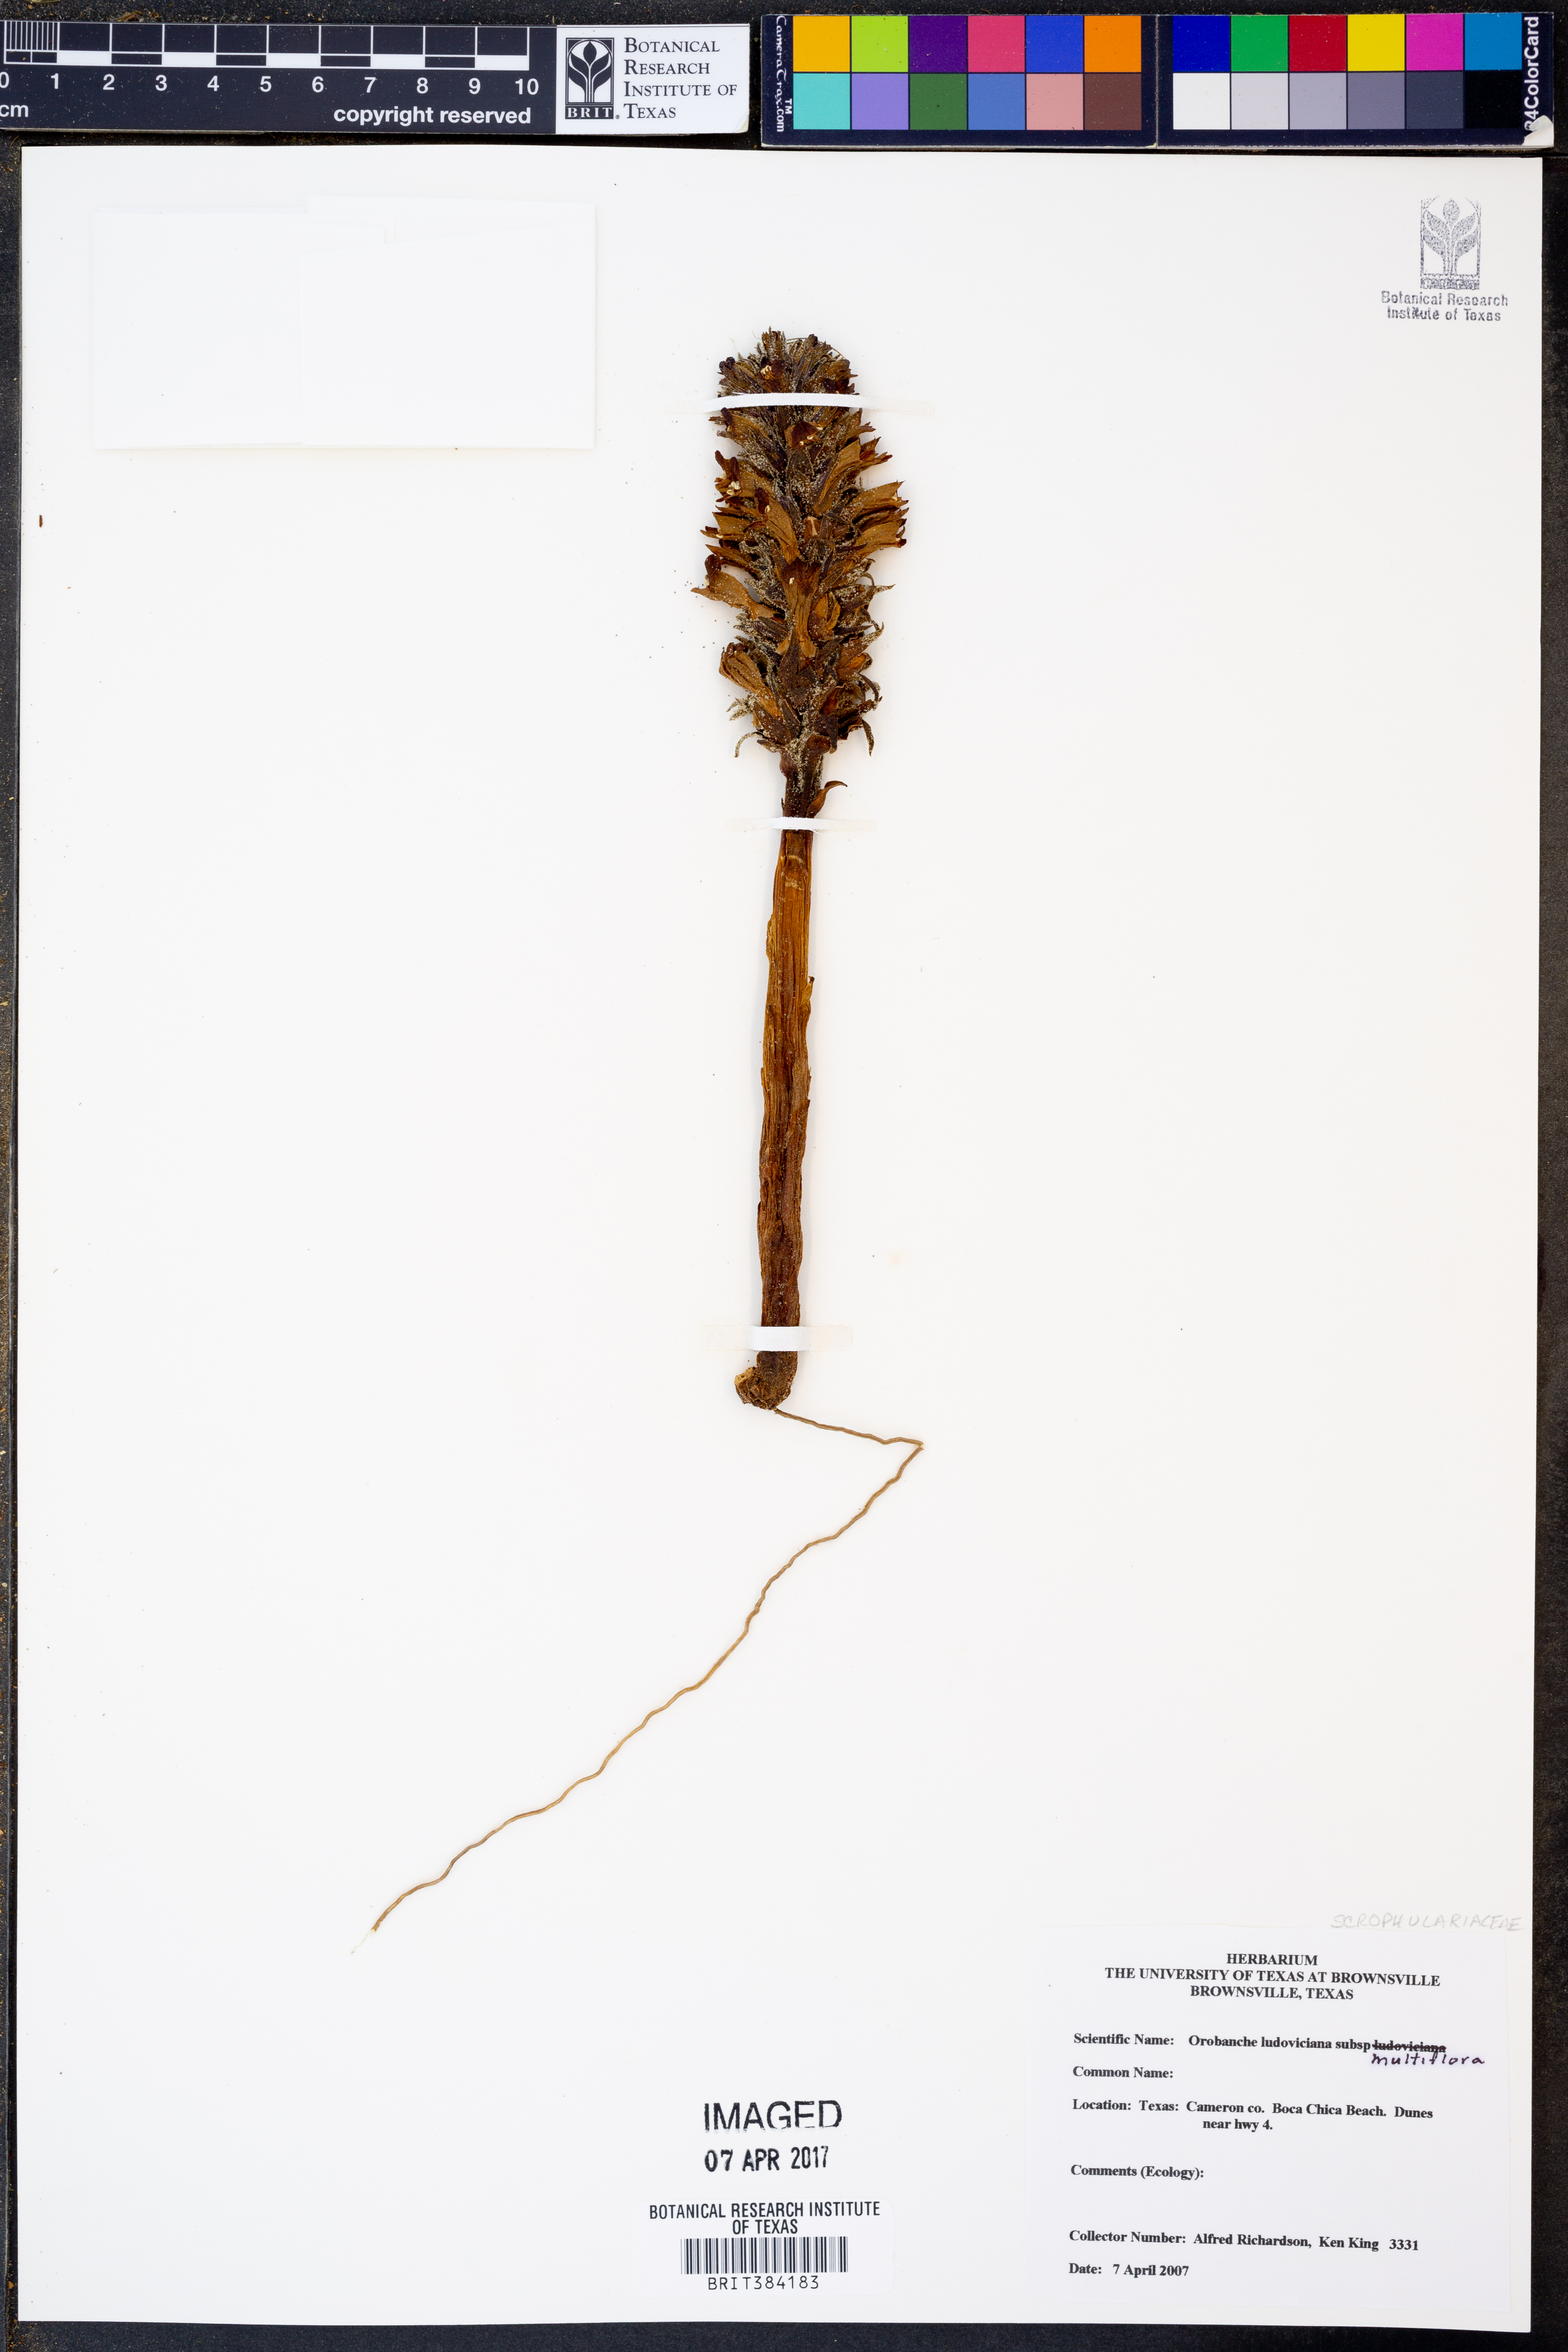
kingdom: Plantae
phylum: Tracheophyta
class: Magnoliopsida
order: Lamiales
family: Orobanchaceae
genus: Aphyllon
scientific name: Aphyllon multiflorum
